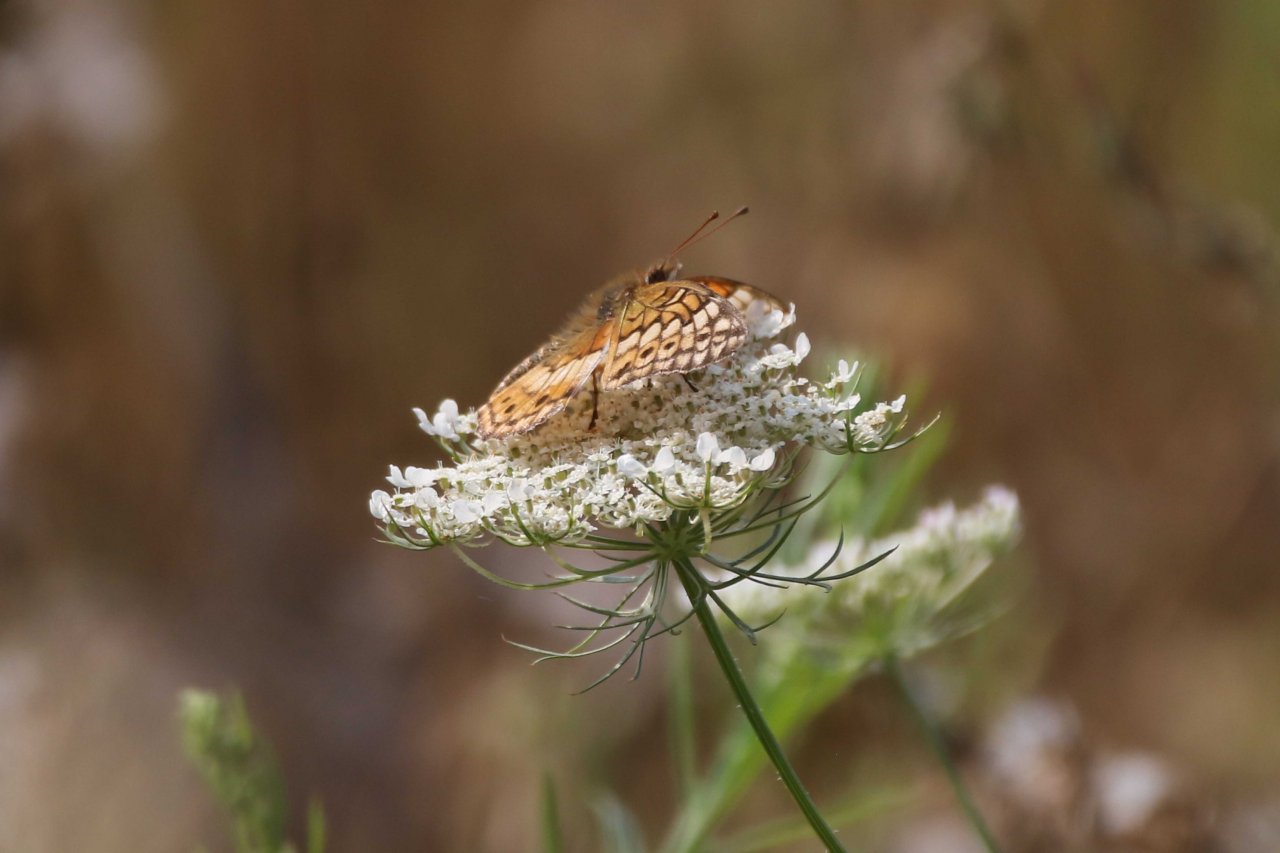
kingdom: Animalia
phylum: Arthropoda
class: Insecta
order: Lepidoptera
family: Nymphalidae
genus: Euptoieta
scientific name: Euptoieta claudia
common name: Variegated Fritillary
